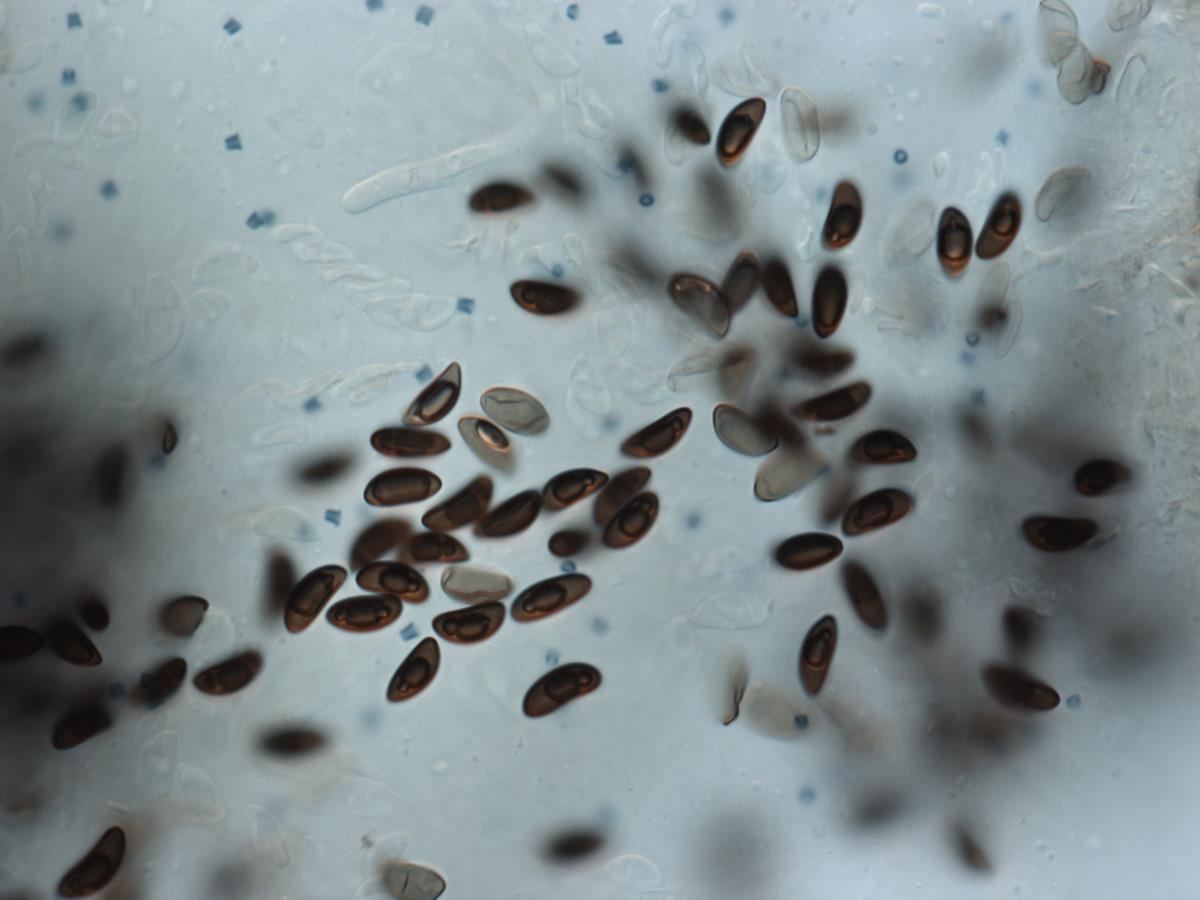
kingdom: Fungi
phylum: Ascomycota
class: Sordariomycetes
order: Xylariales
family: Xylariaceae
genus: Xylaria
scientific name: Xylaria
